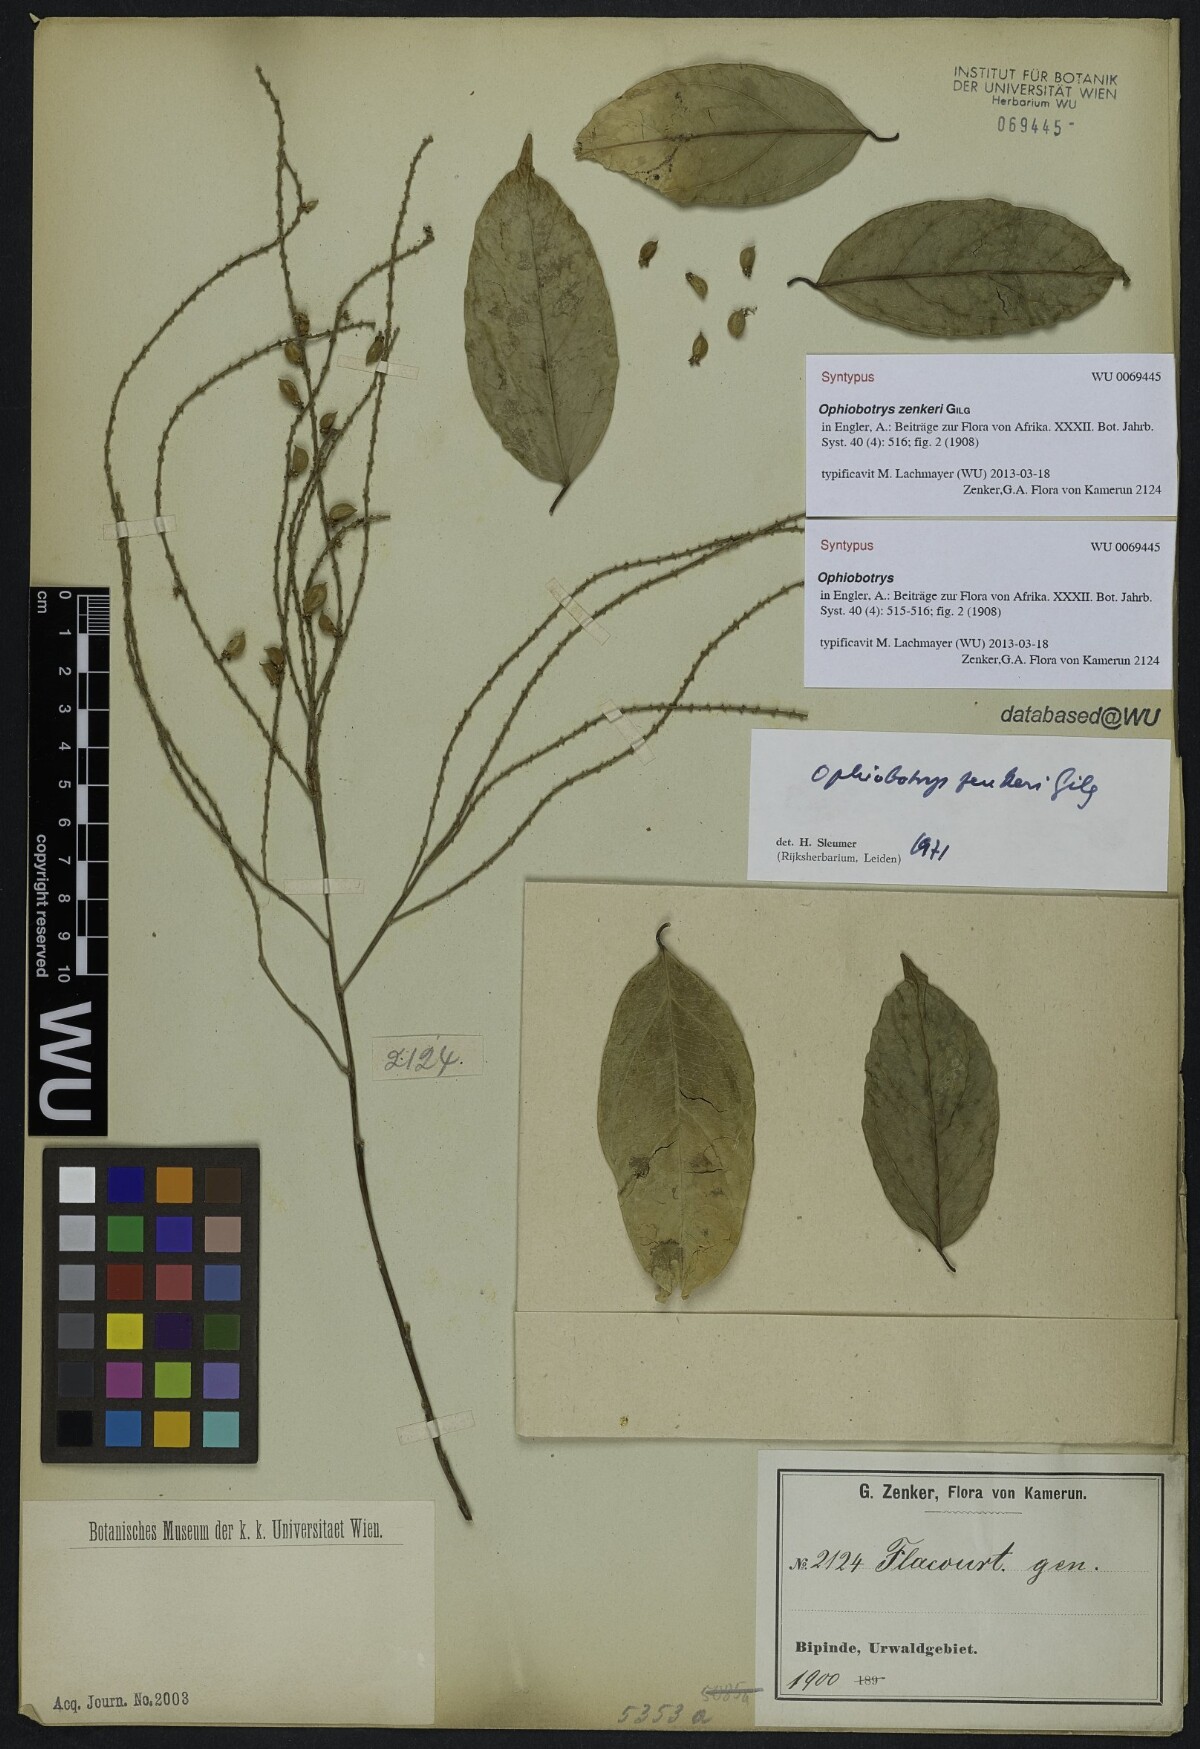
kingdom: Plantae
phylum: Tracheophyta
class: Magnoliopsida
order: Malpighiales
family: Salicaceae
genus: Ophiobotrys
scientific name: Ophiobotrys zenkeri
